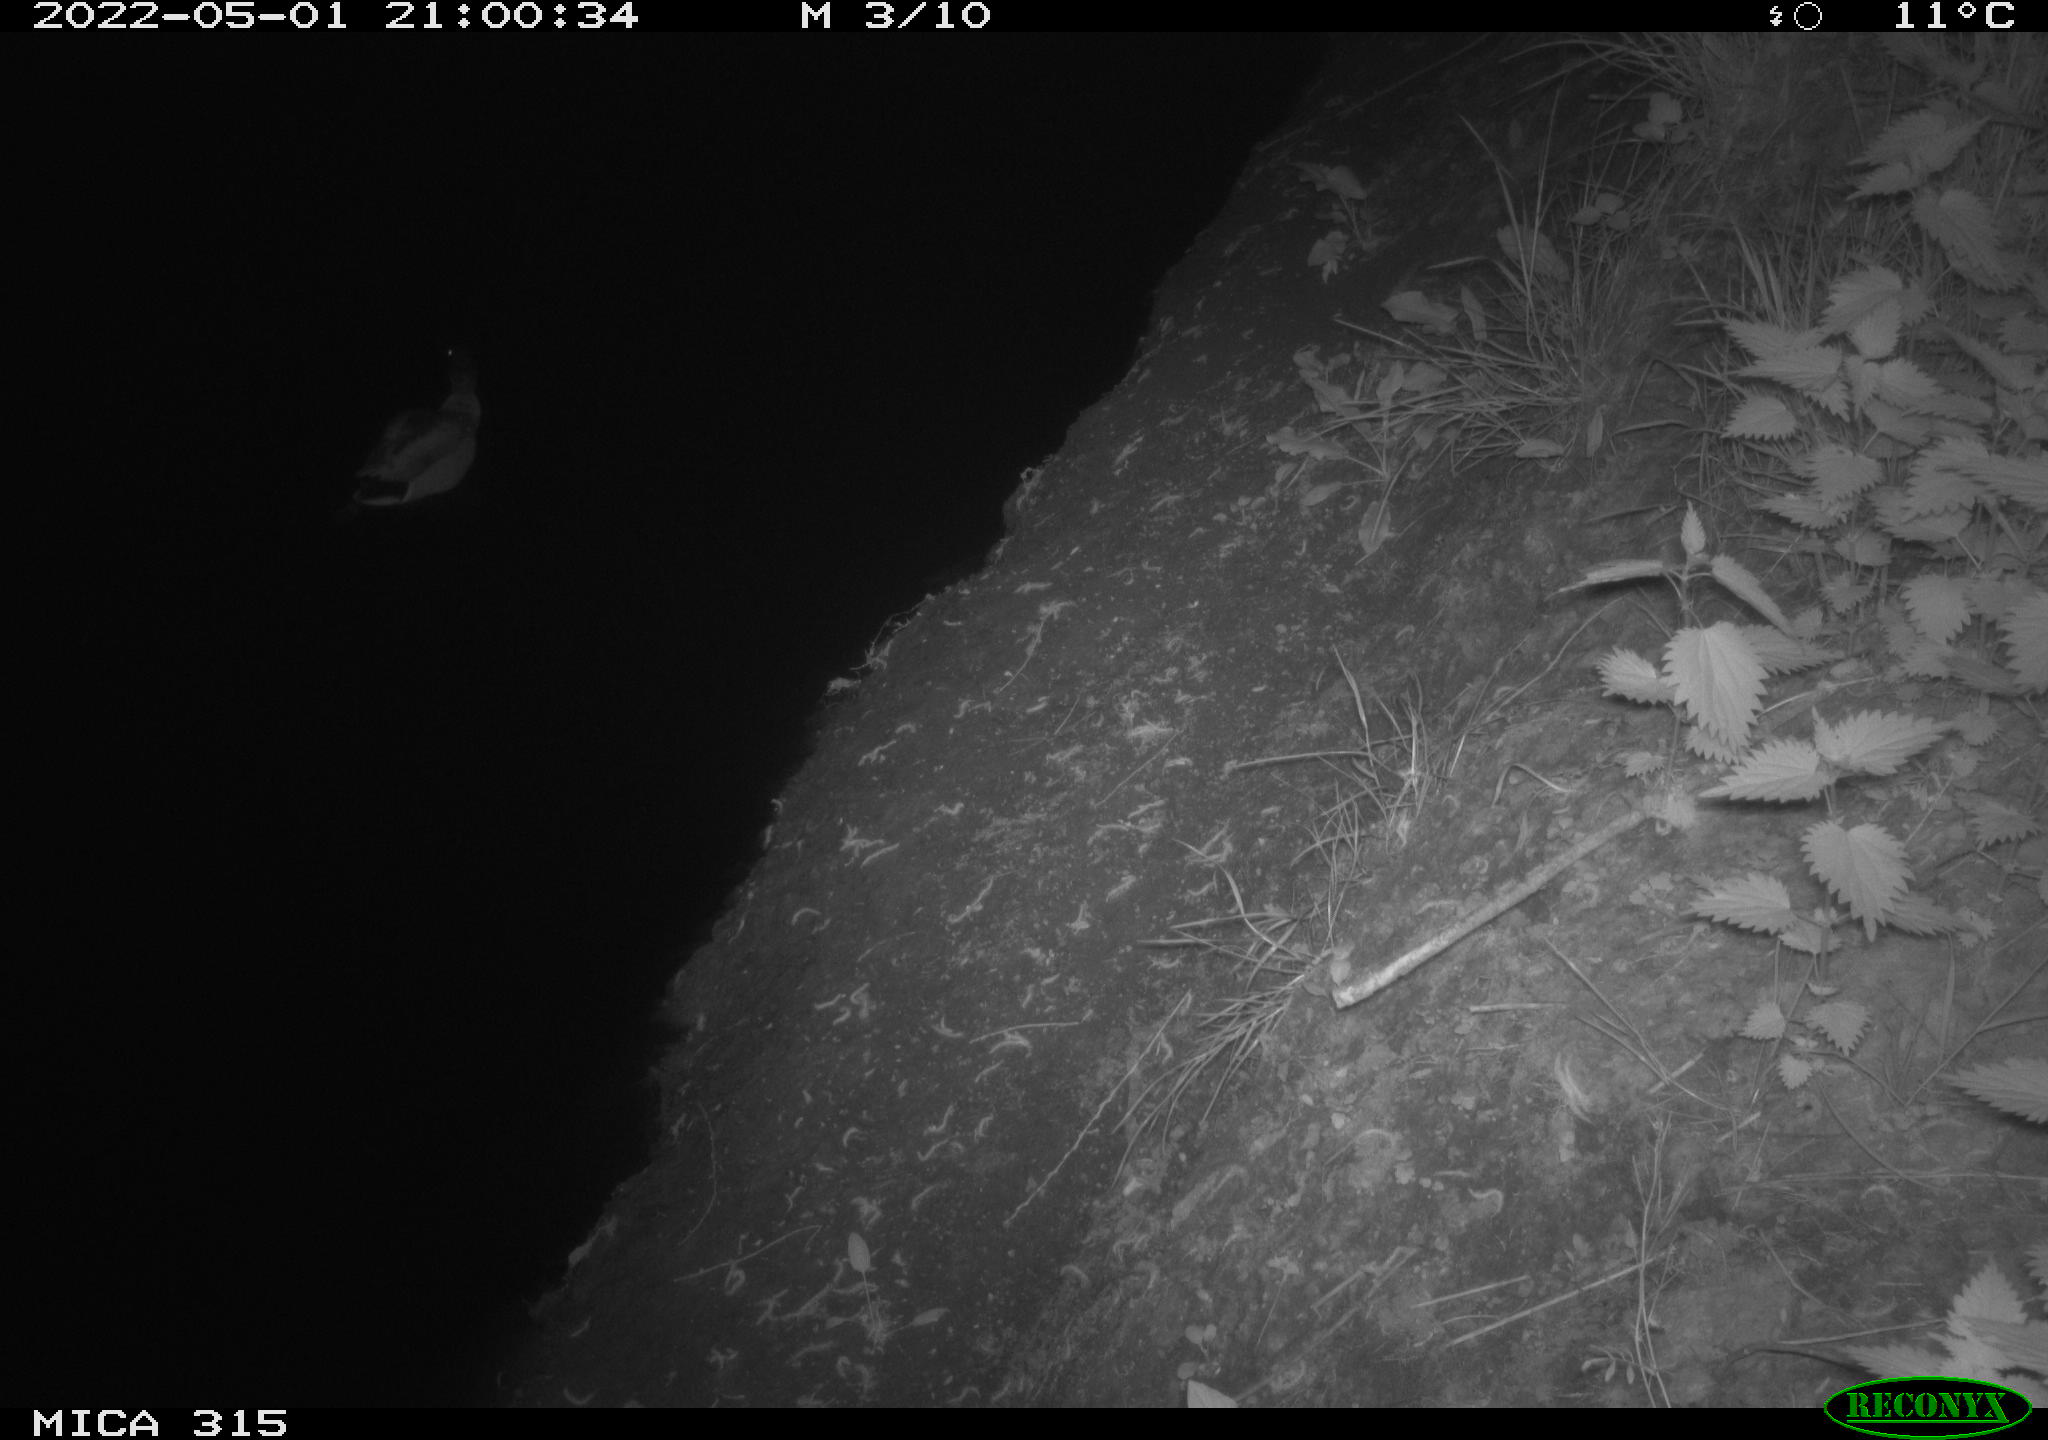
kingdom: Animalia
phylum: Chordata
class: Aves
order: Anseriformes
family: Anatidae
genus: Anas
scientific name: Anas platyrhynchos
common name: Mallard
